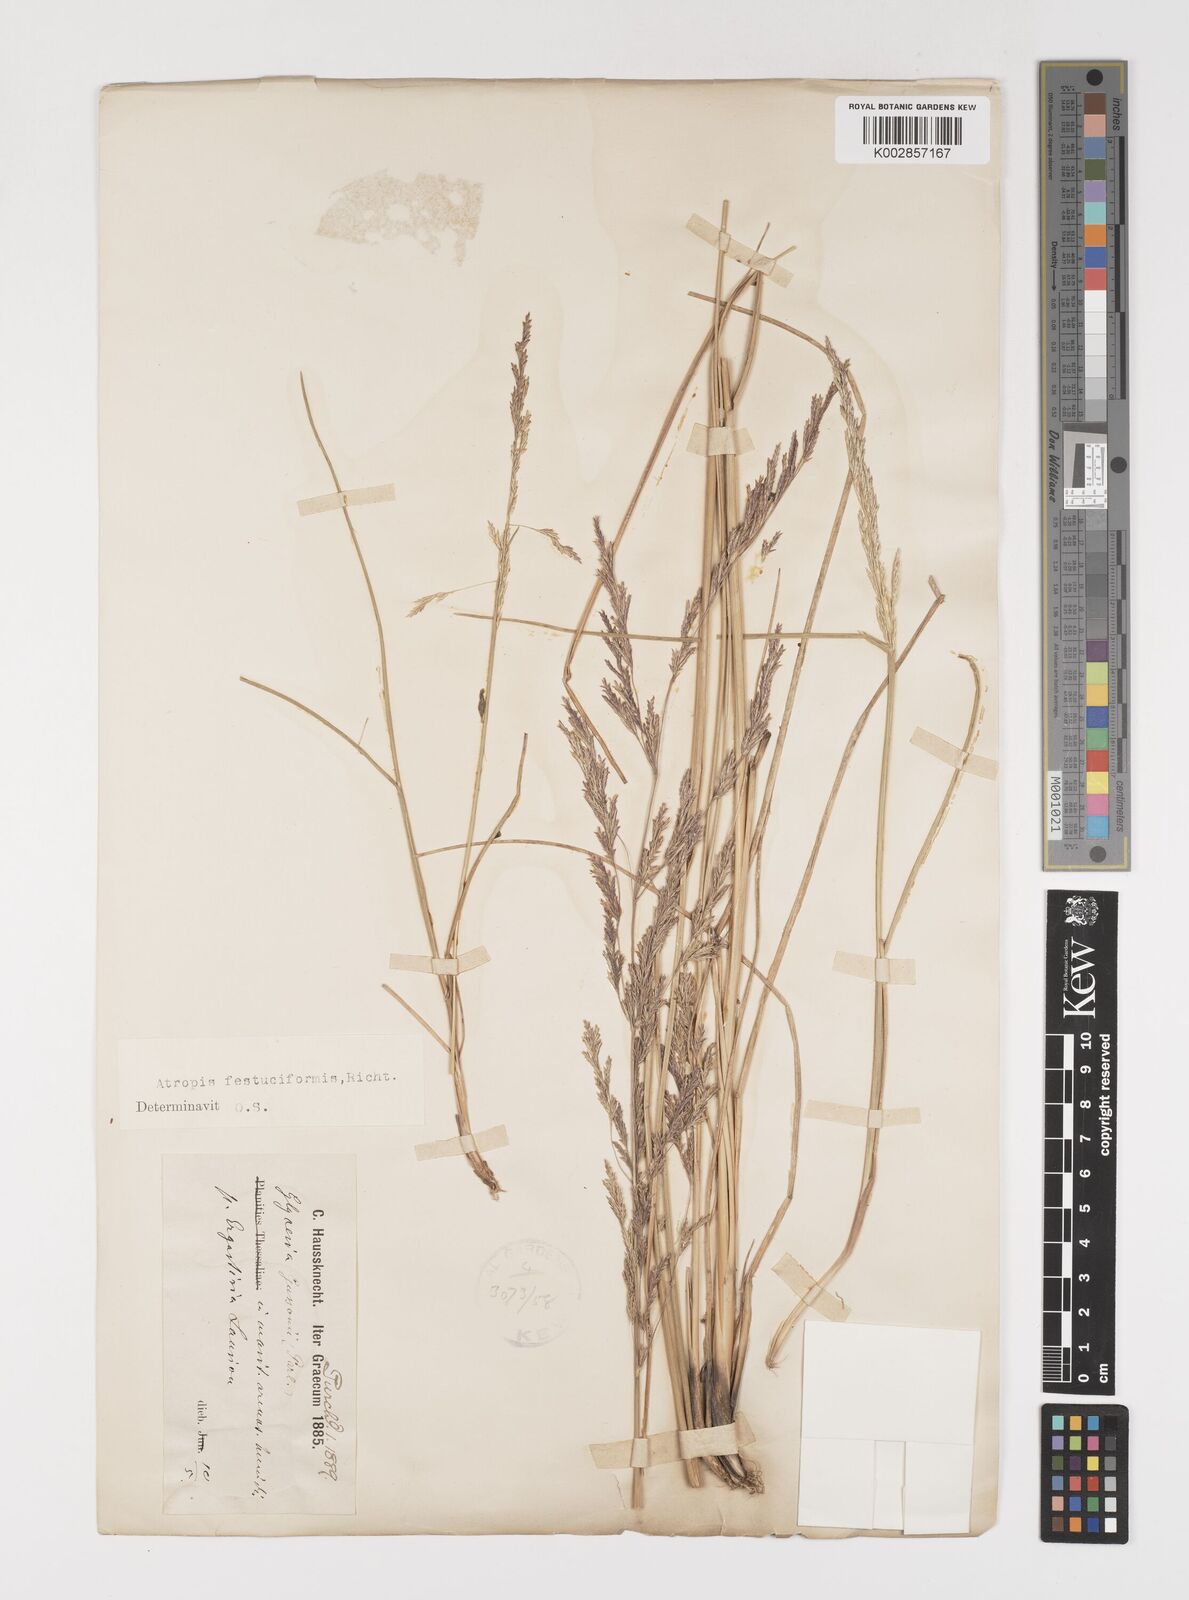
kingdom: Plantae
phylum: Tracheophyta
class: Liliopsida
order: Poales
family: Poaceae
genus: Puccinellia
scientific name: Puccinellia festuciformis
